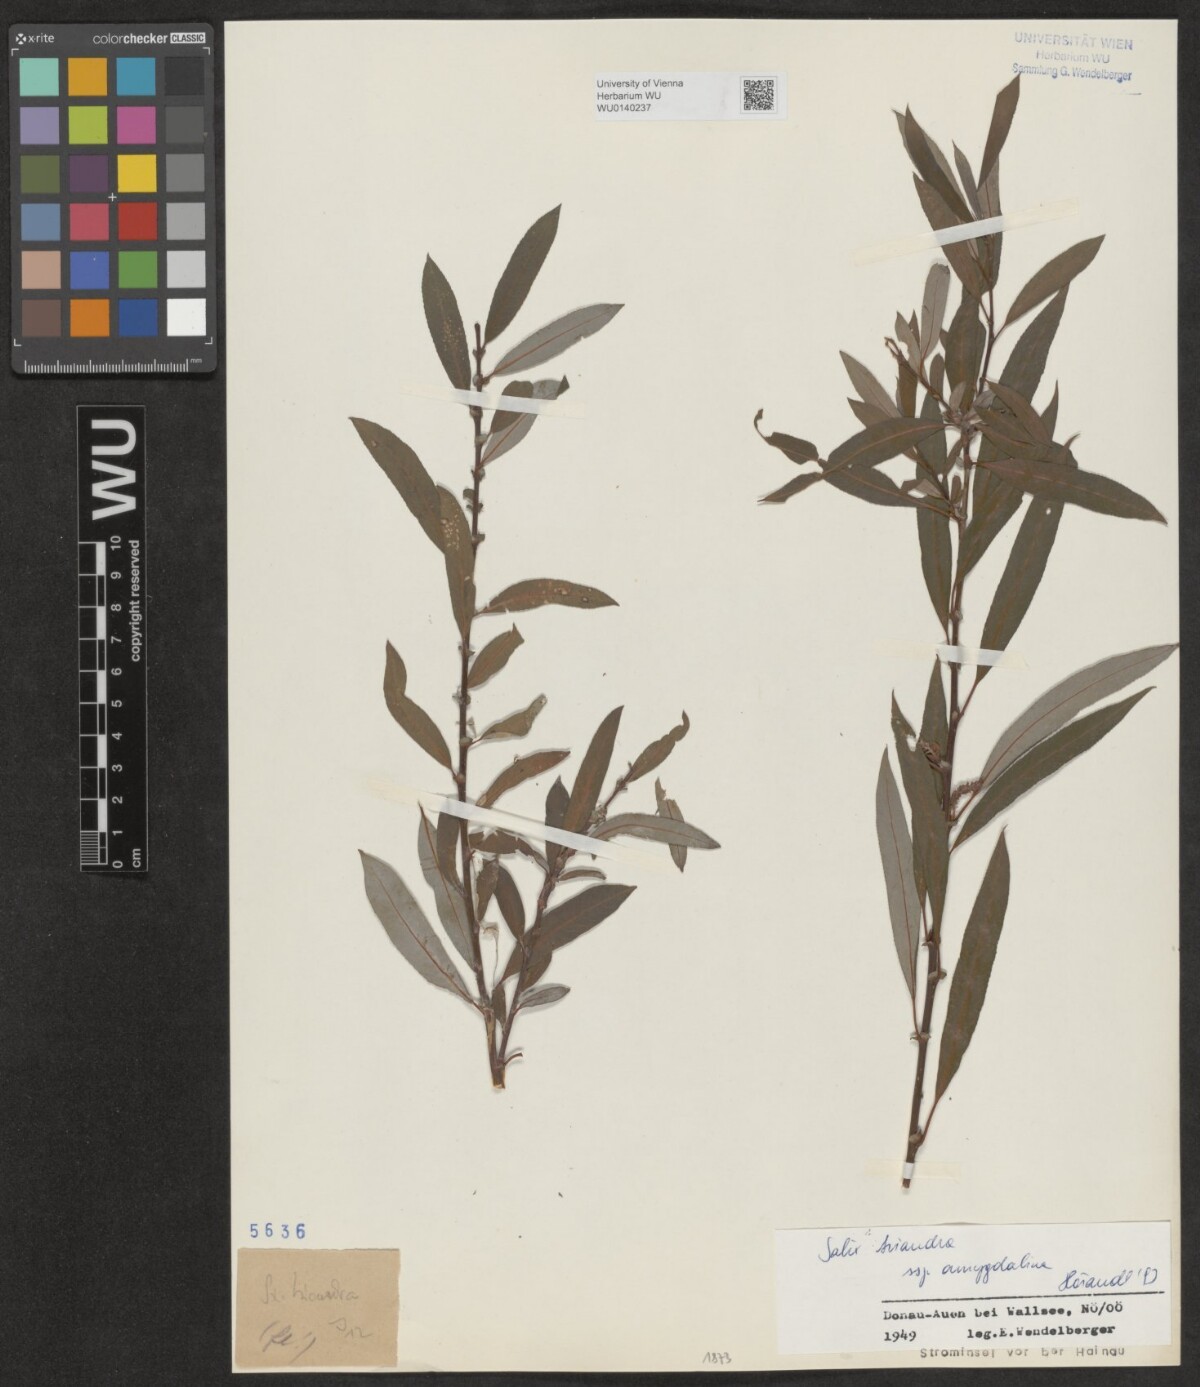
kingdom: Plantae
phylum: Tracheophyta
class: Magnoliopsida
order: Malpighiales
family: Salicaceae
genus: Salix
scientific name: Salix triandra
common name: Almond willow
